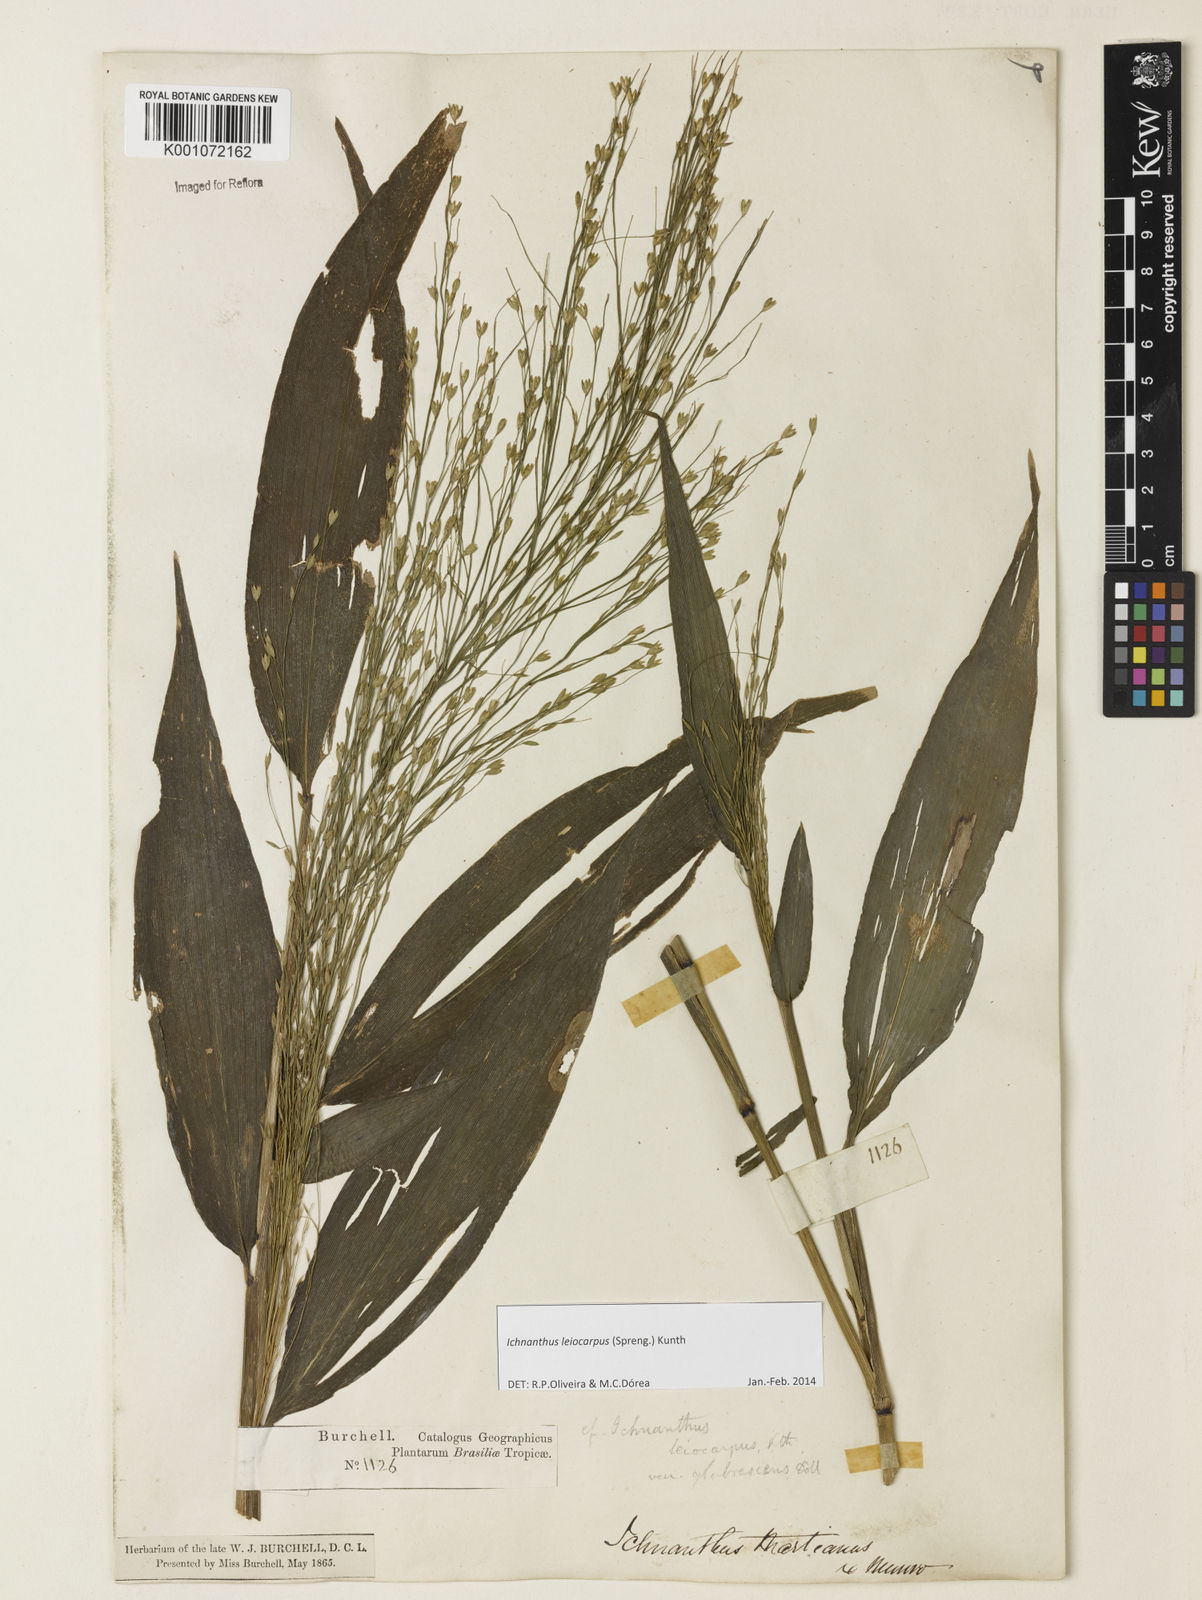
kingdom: Plantae
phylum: Tracheophyta
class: Liliopsida
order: Poales
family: Poaceae
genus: Ichnanthus
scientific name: Ichnanthus leiocarpus
